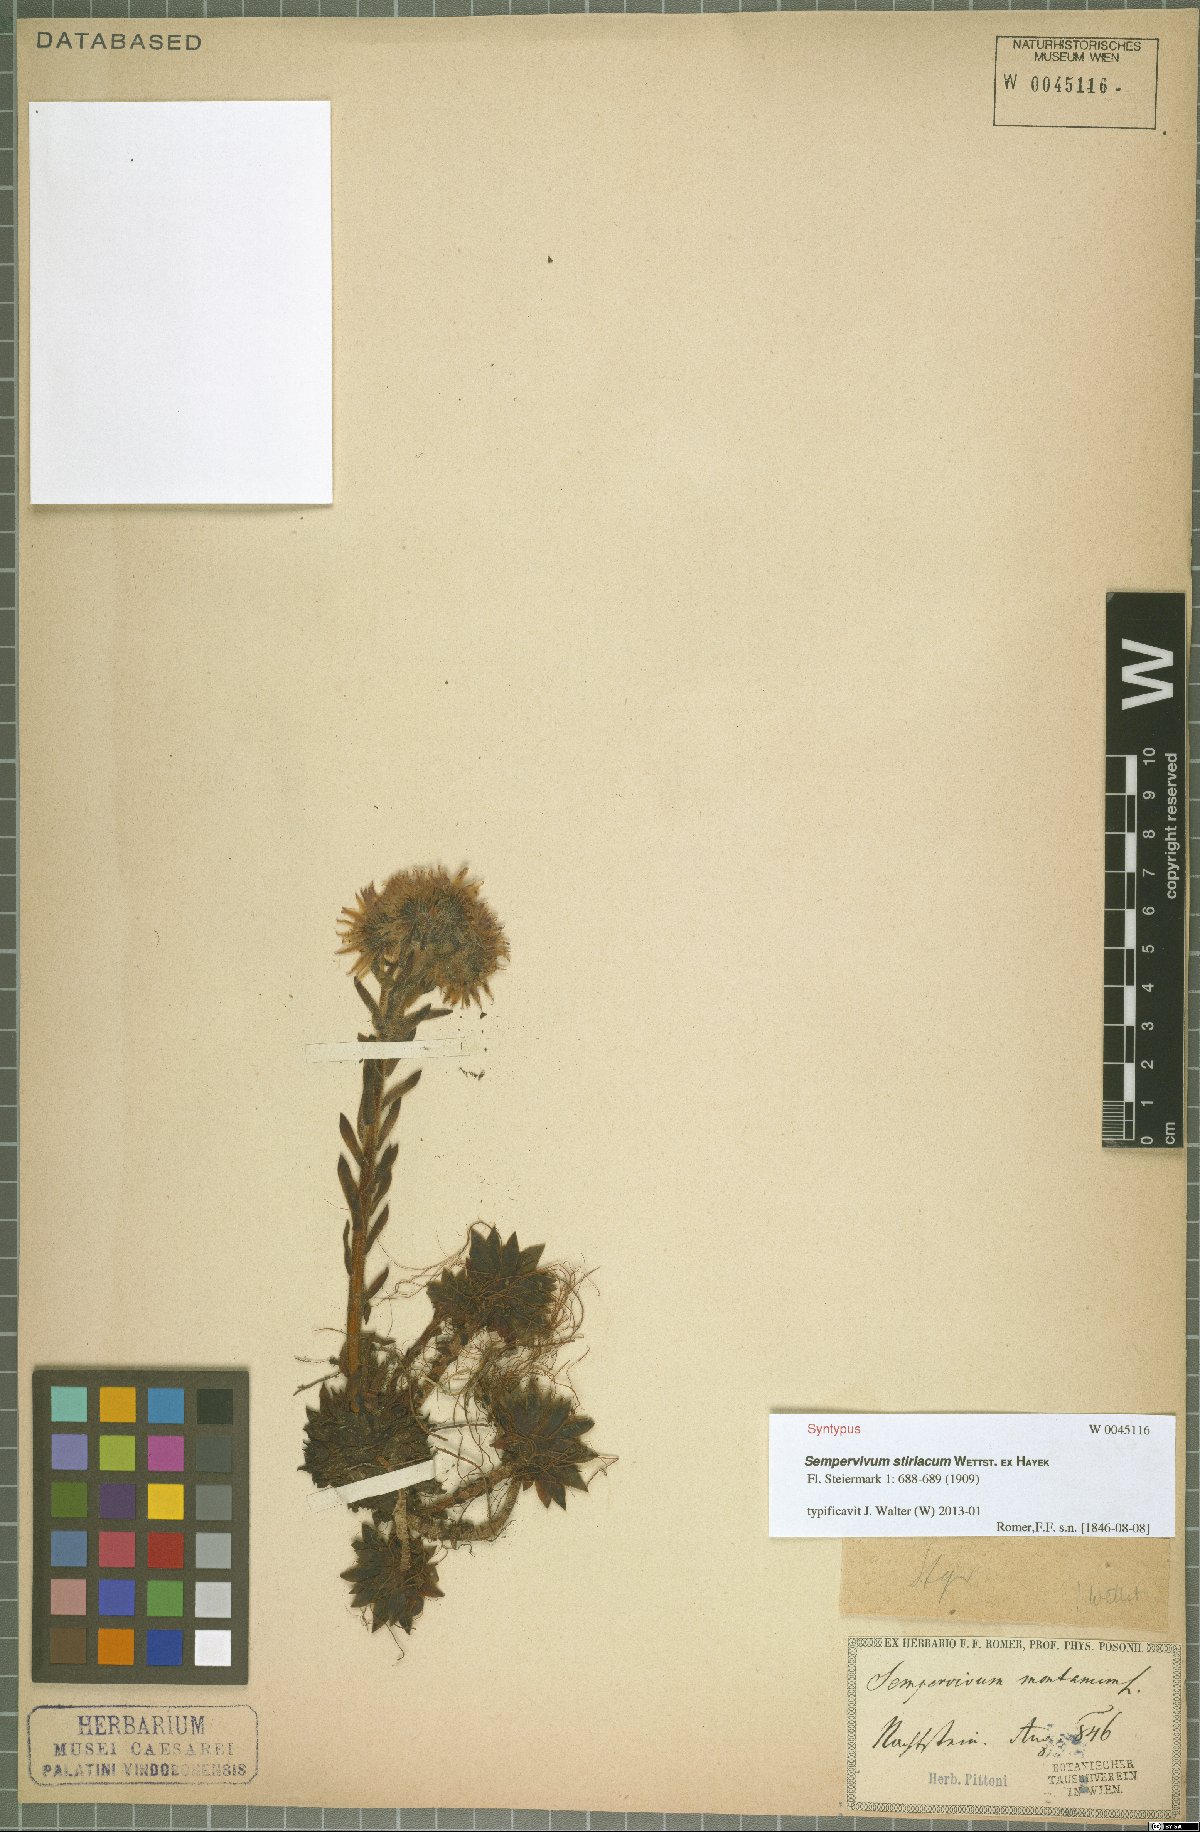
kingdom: Plantae
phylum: Tracheophyta
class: Magnoliopsida
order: Saxifragales
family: Crassulaceae
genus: Sempervivum
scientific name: Sempervivum montanum
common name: Mountain house-leek
